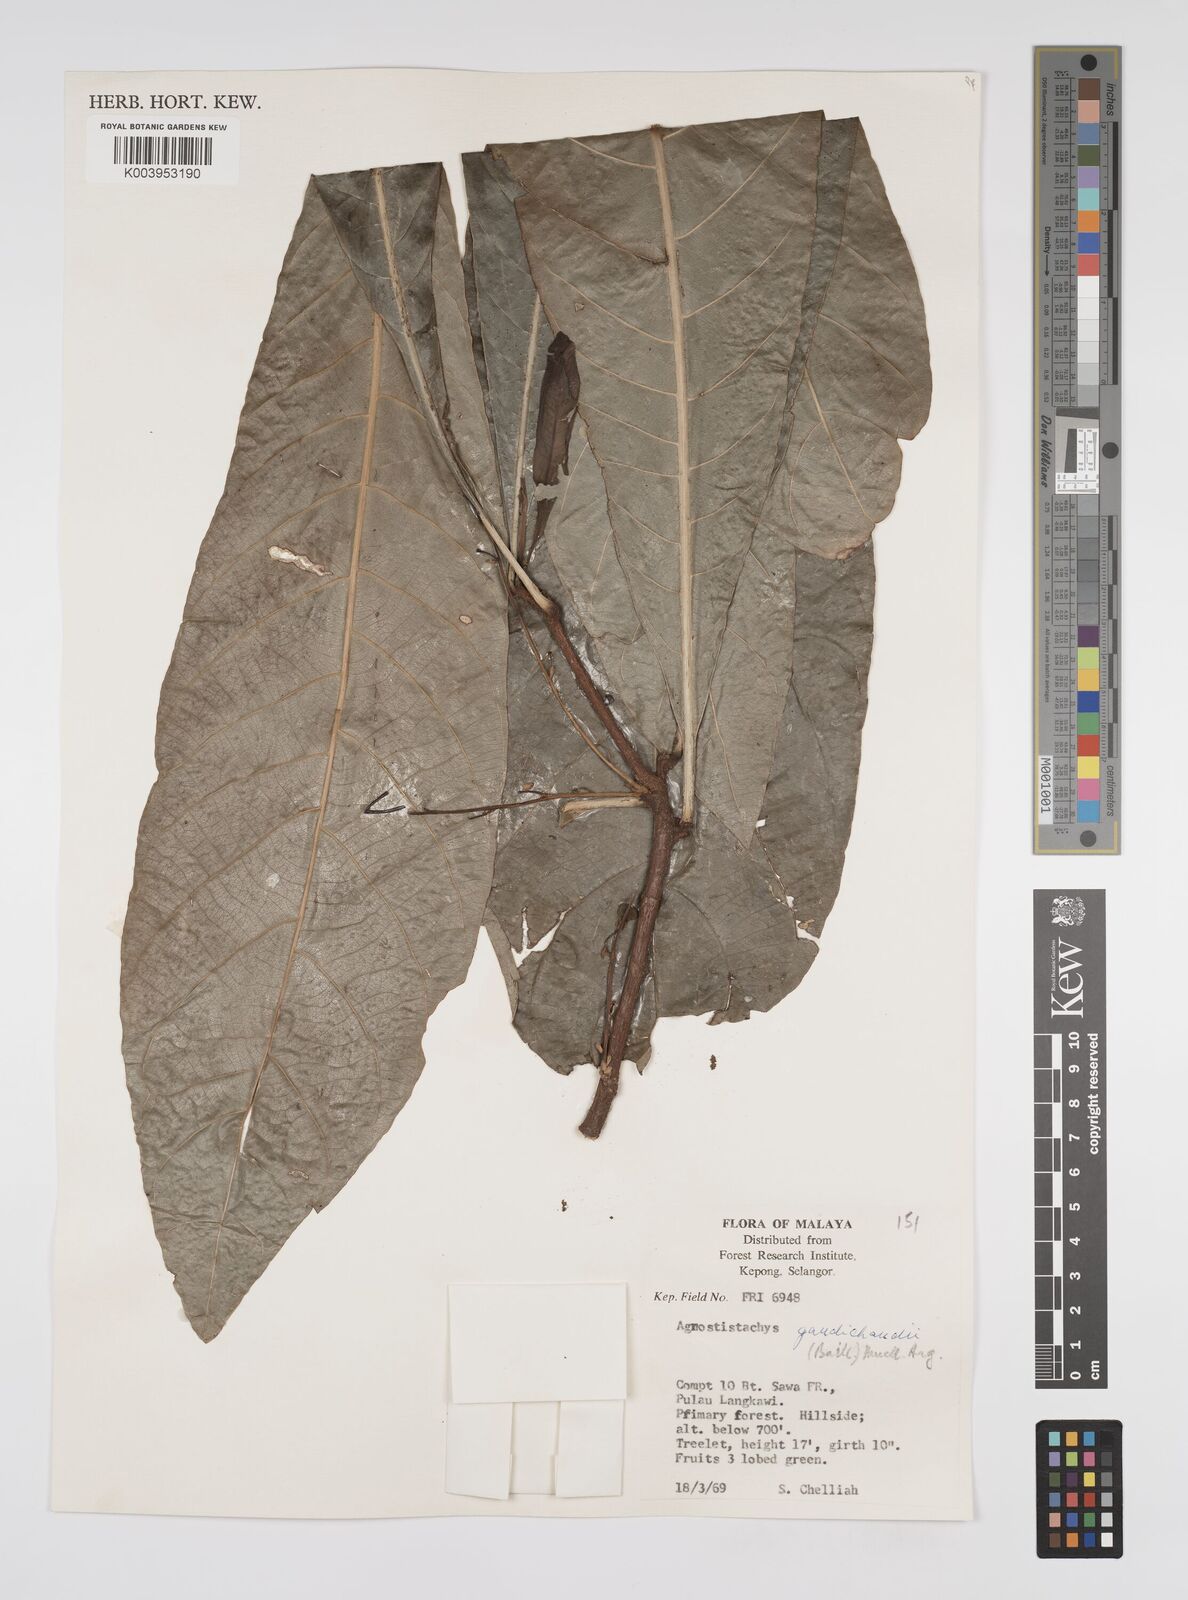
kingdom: Plantae
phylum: Tracheophyta
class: Magnoliopsida
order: Malpighiales
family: Euphorbiaceae
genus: Agrostistachys
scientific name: Agrostistachys gaudichaudii
